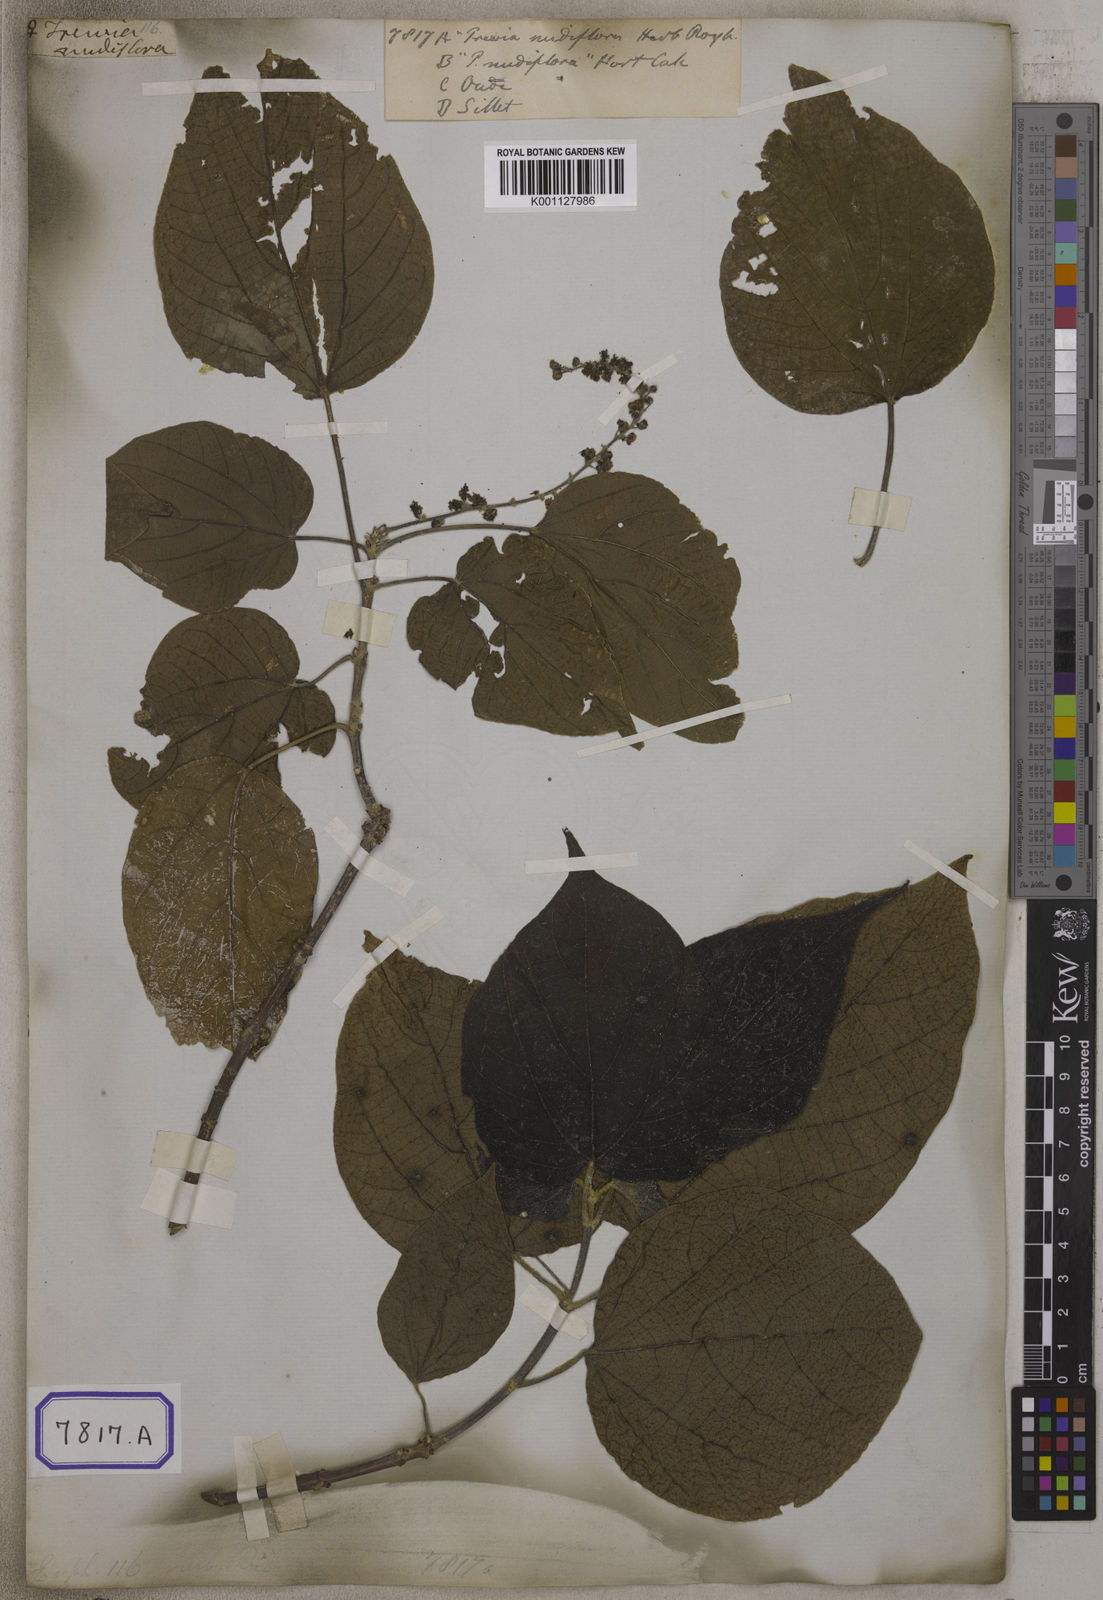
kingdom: Plantae
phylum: Tracheophyta
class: Magnoliopsida
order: Malpighiales
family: Euphorbiaceae
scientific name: Euphorbiaceae
